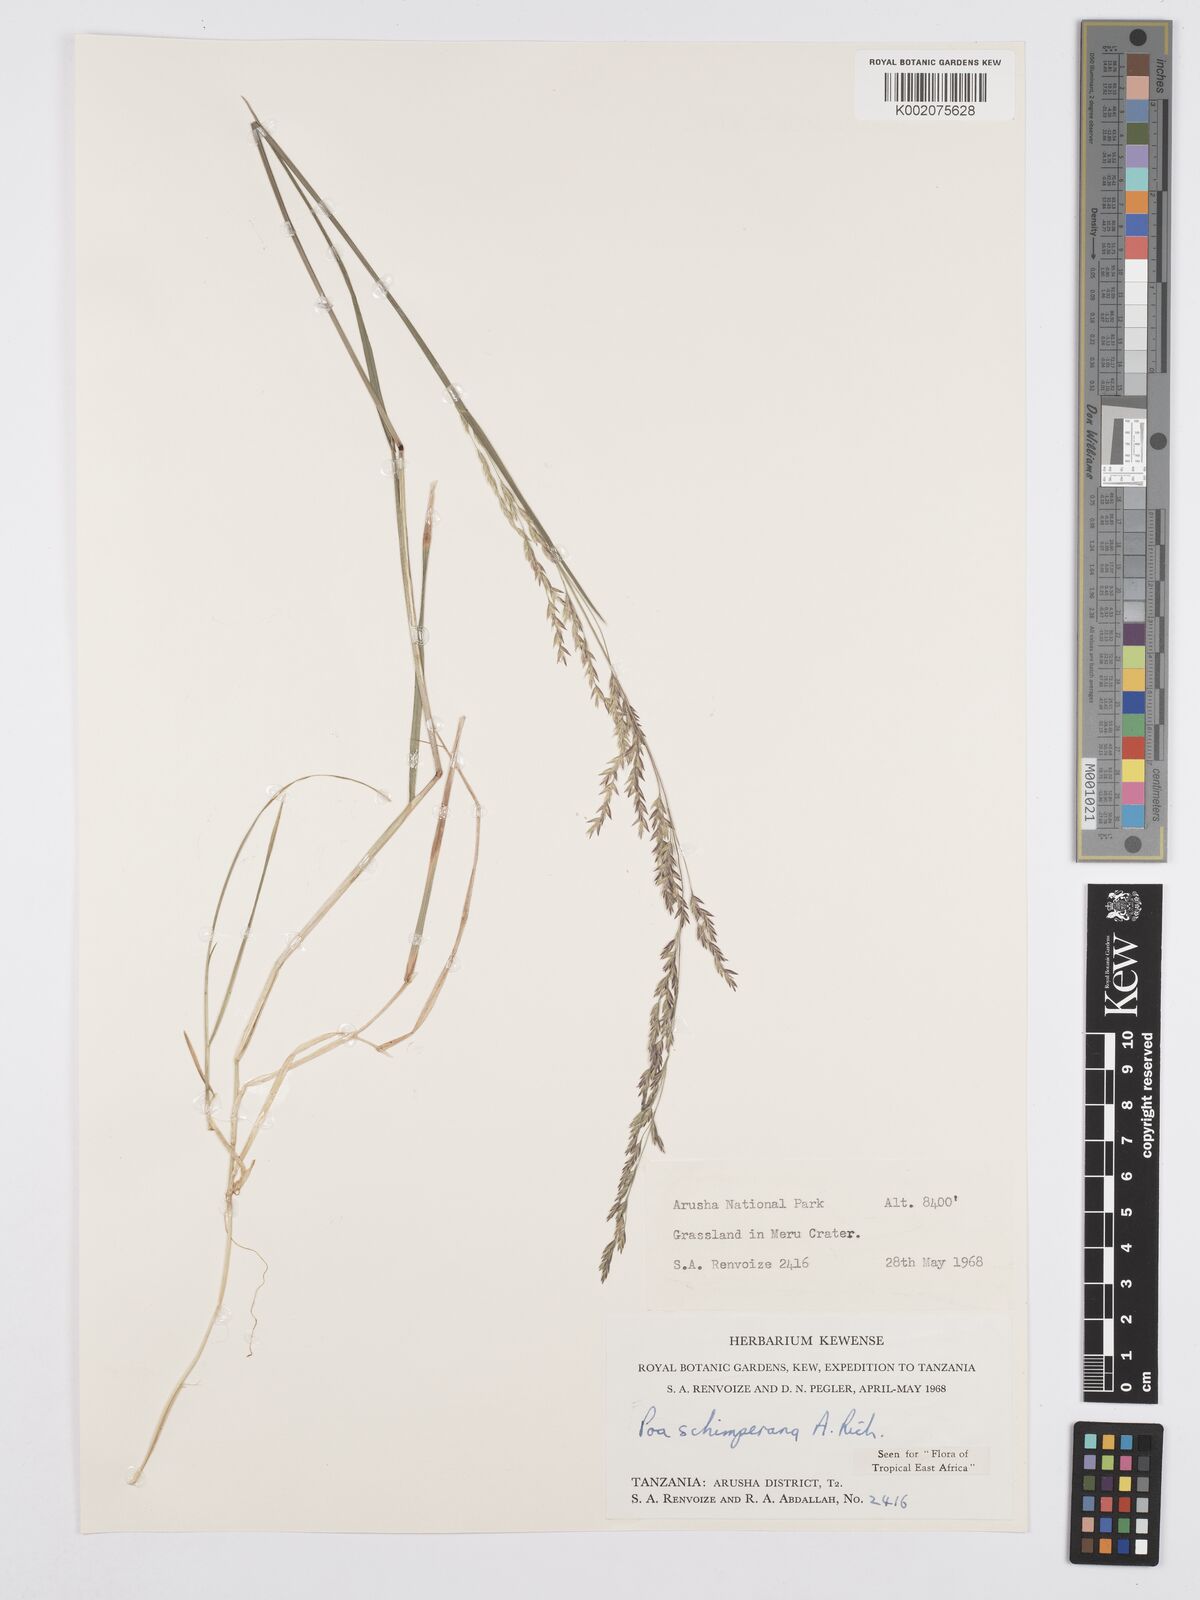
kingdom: Plantae
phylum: Tracheophyta
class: Liliopsida
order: Poales
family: Poaceae
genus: Poa
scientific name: Poa schimperiana
